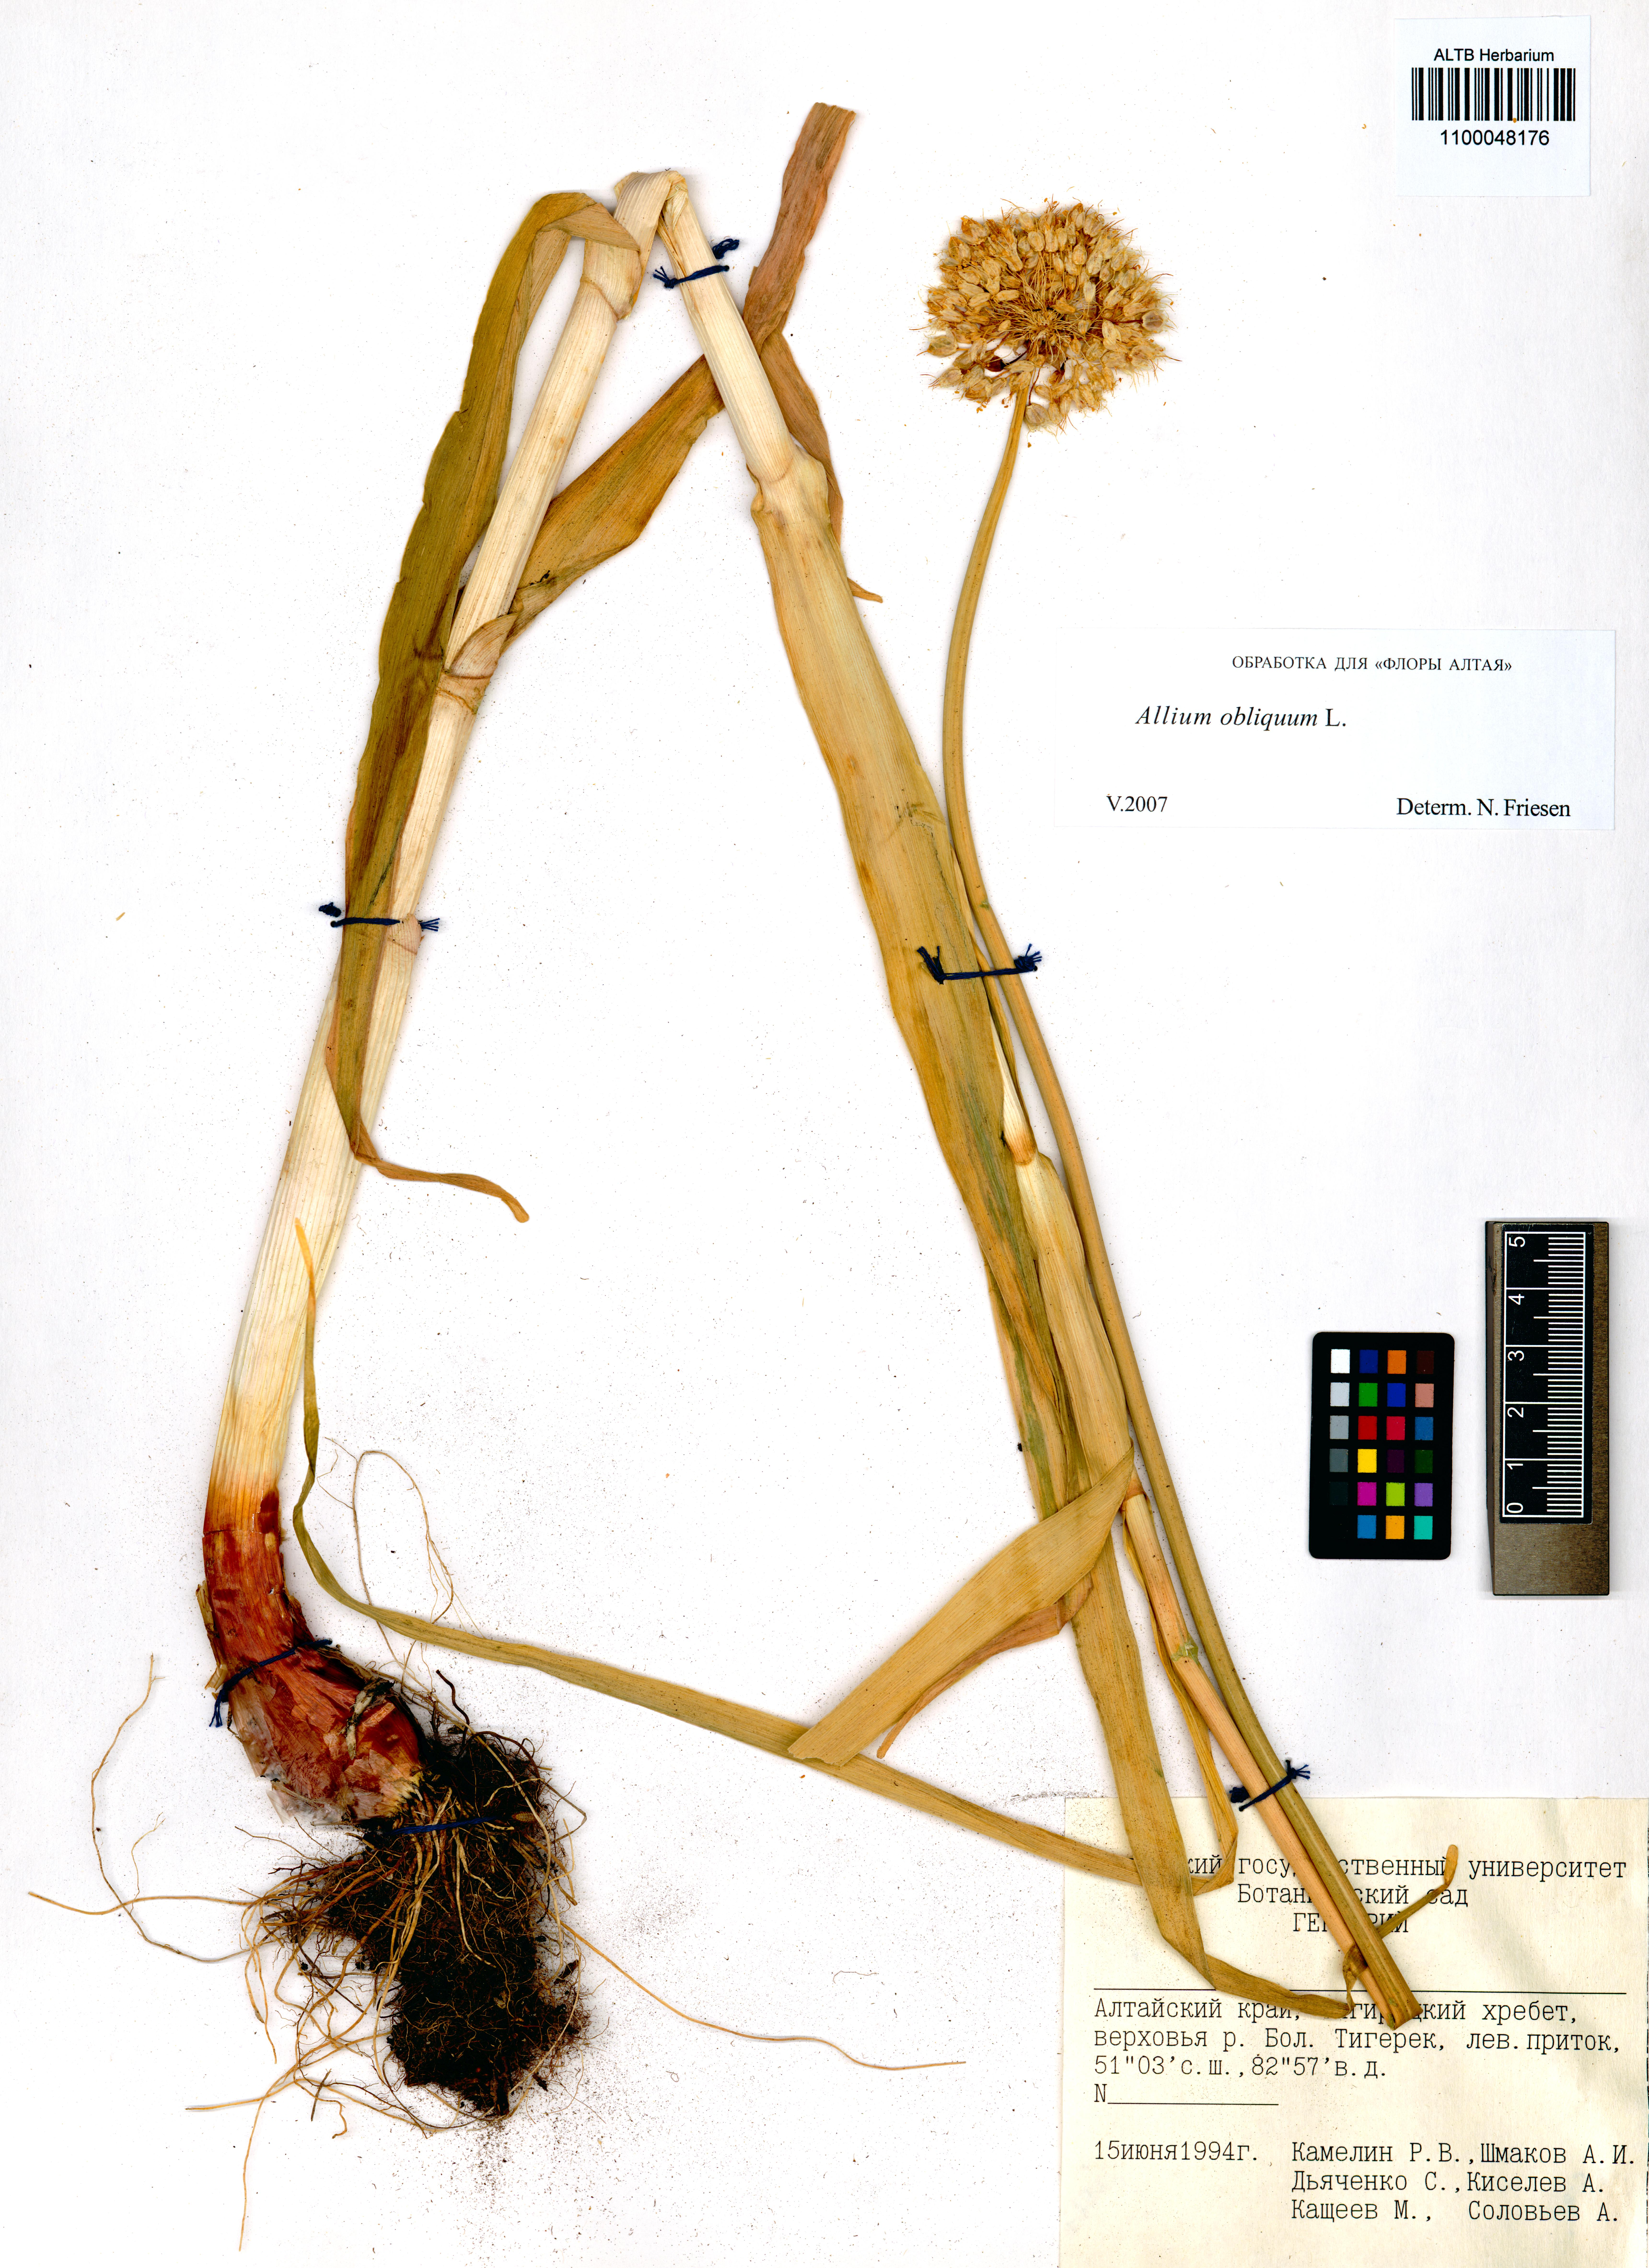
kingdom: Plantae
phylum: Tracheophyta
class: Liliopsida
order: Asparagales
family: Amaryllidaceae
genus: Allium
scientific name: Allium obliquum
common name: Oblique onion
